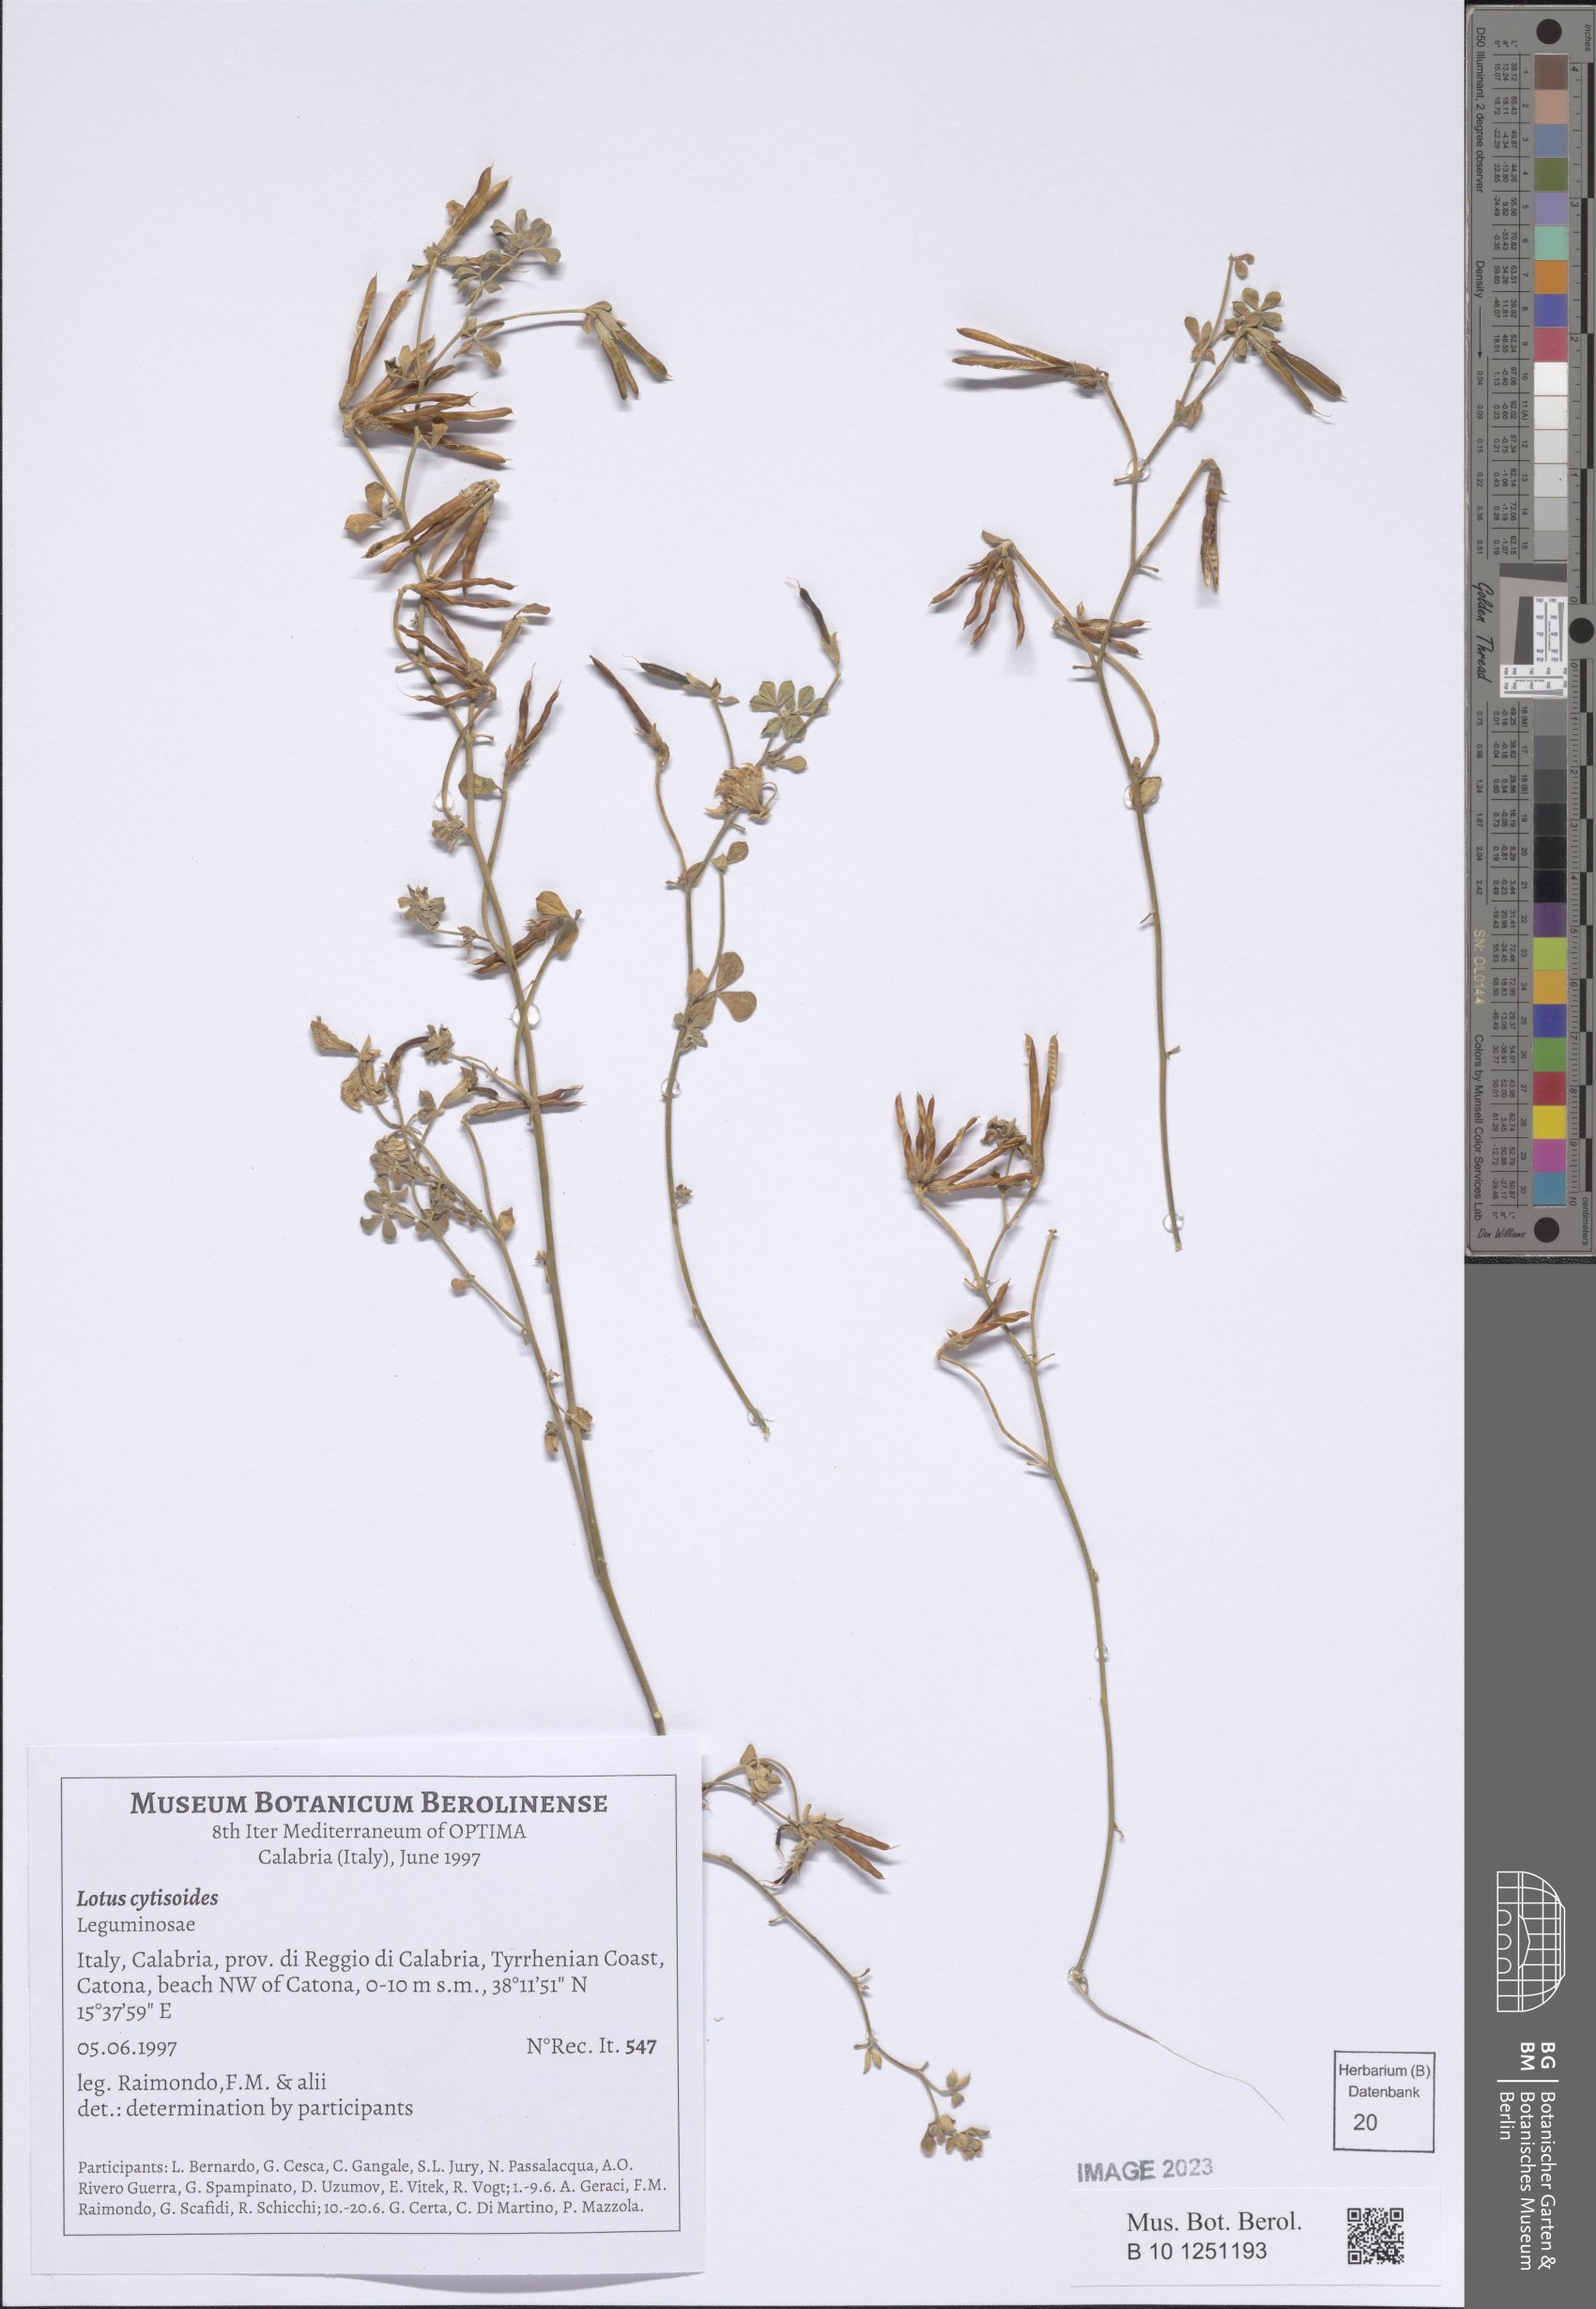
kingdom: Plantae
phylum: Tracheophyta
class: Magnoliopsida
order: Fabales
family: Fabaceae
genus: Lotus
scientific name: Lotus cytisoides
